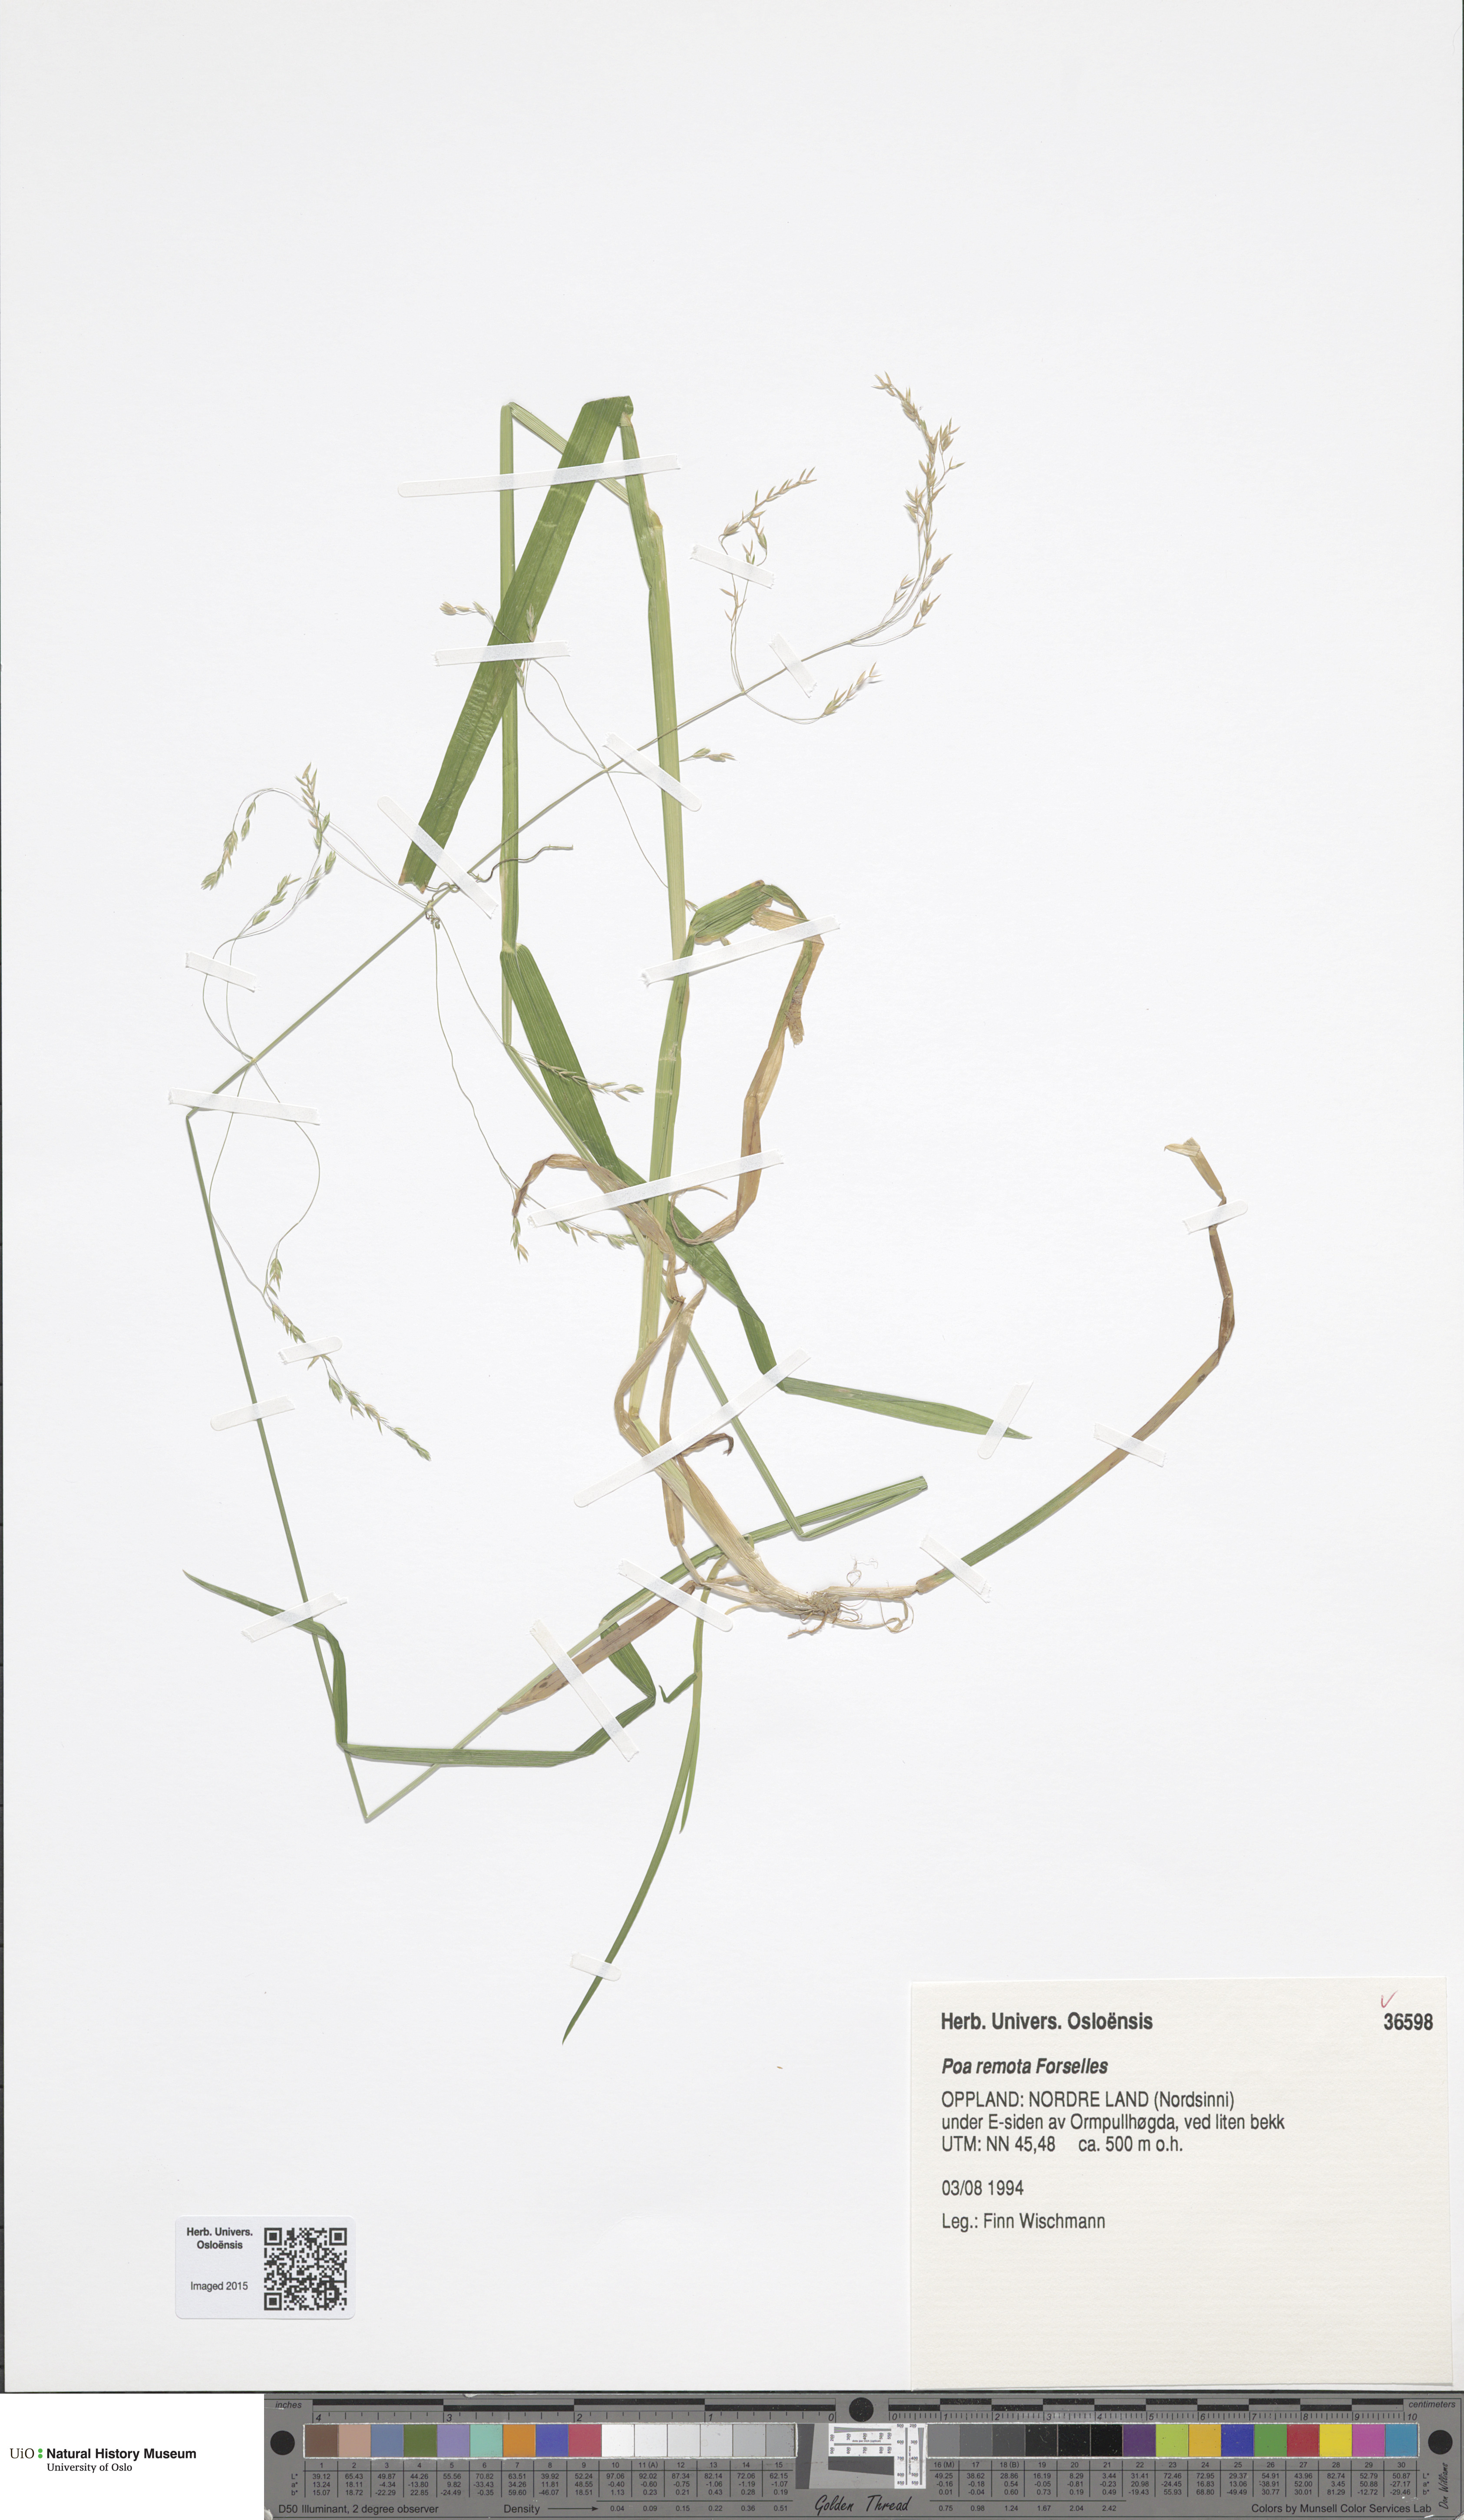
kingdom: Plantae
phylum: Tracheophyta
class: Liliopsida
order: Poales
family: Poaceae
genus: Poa
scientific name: Poa remota
